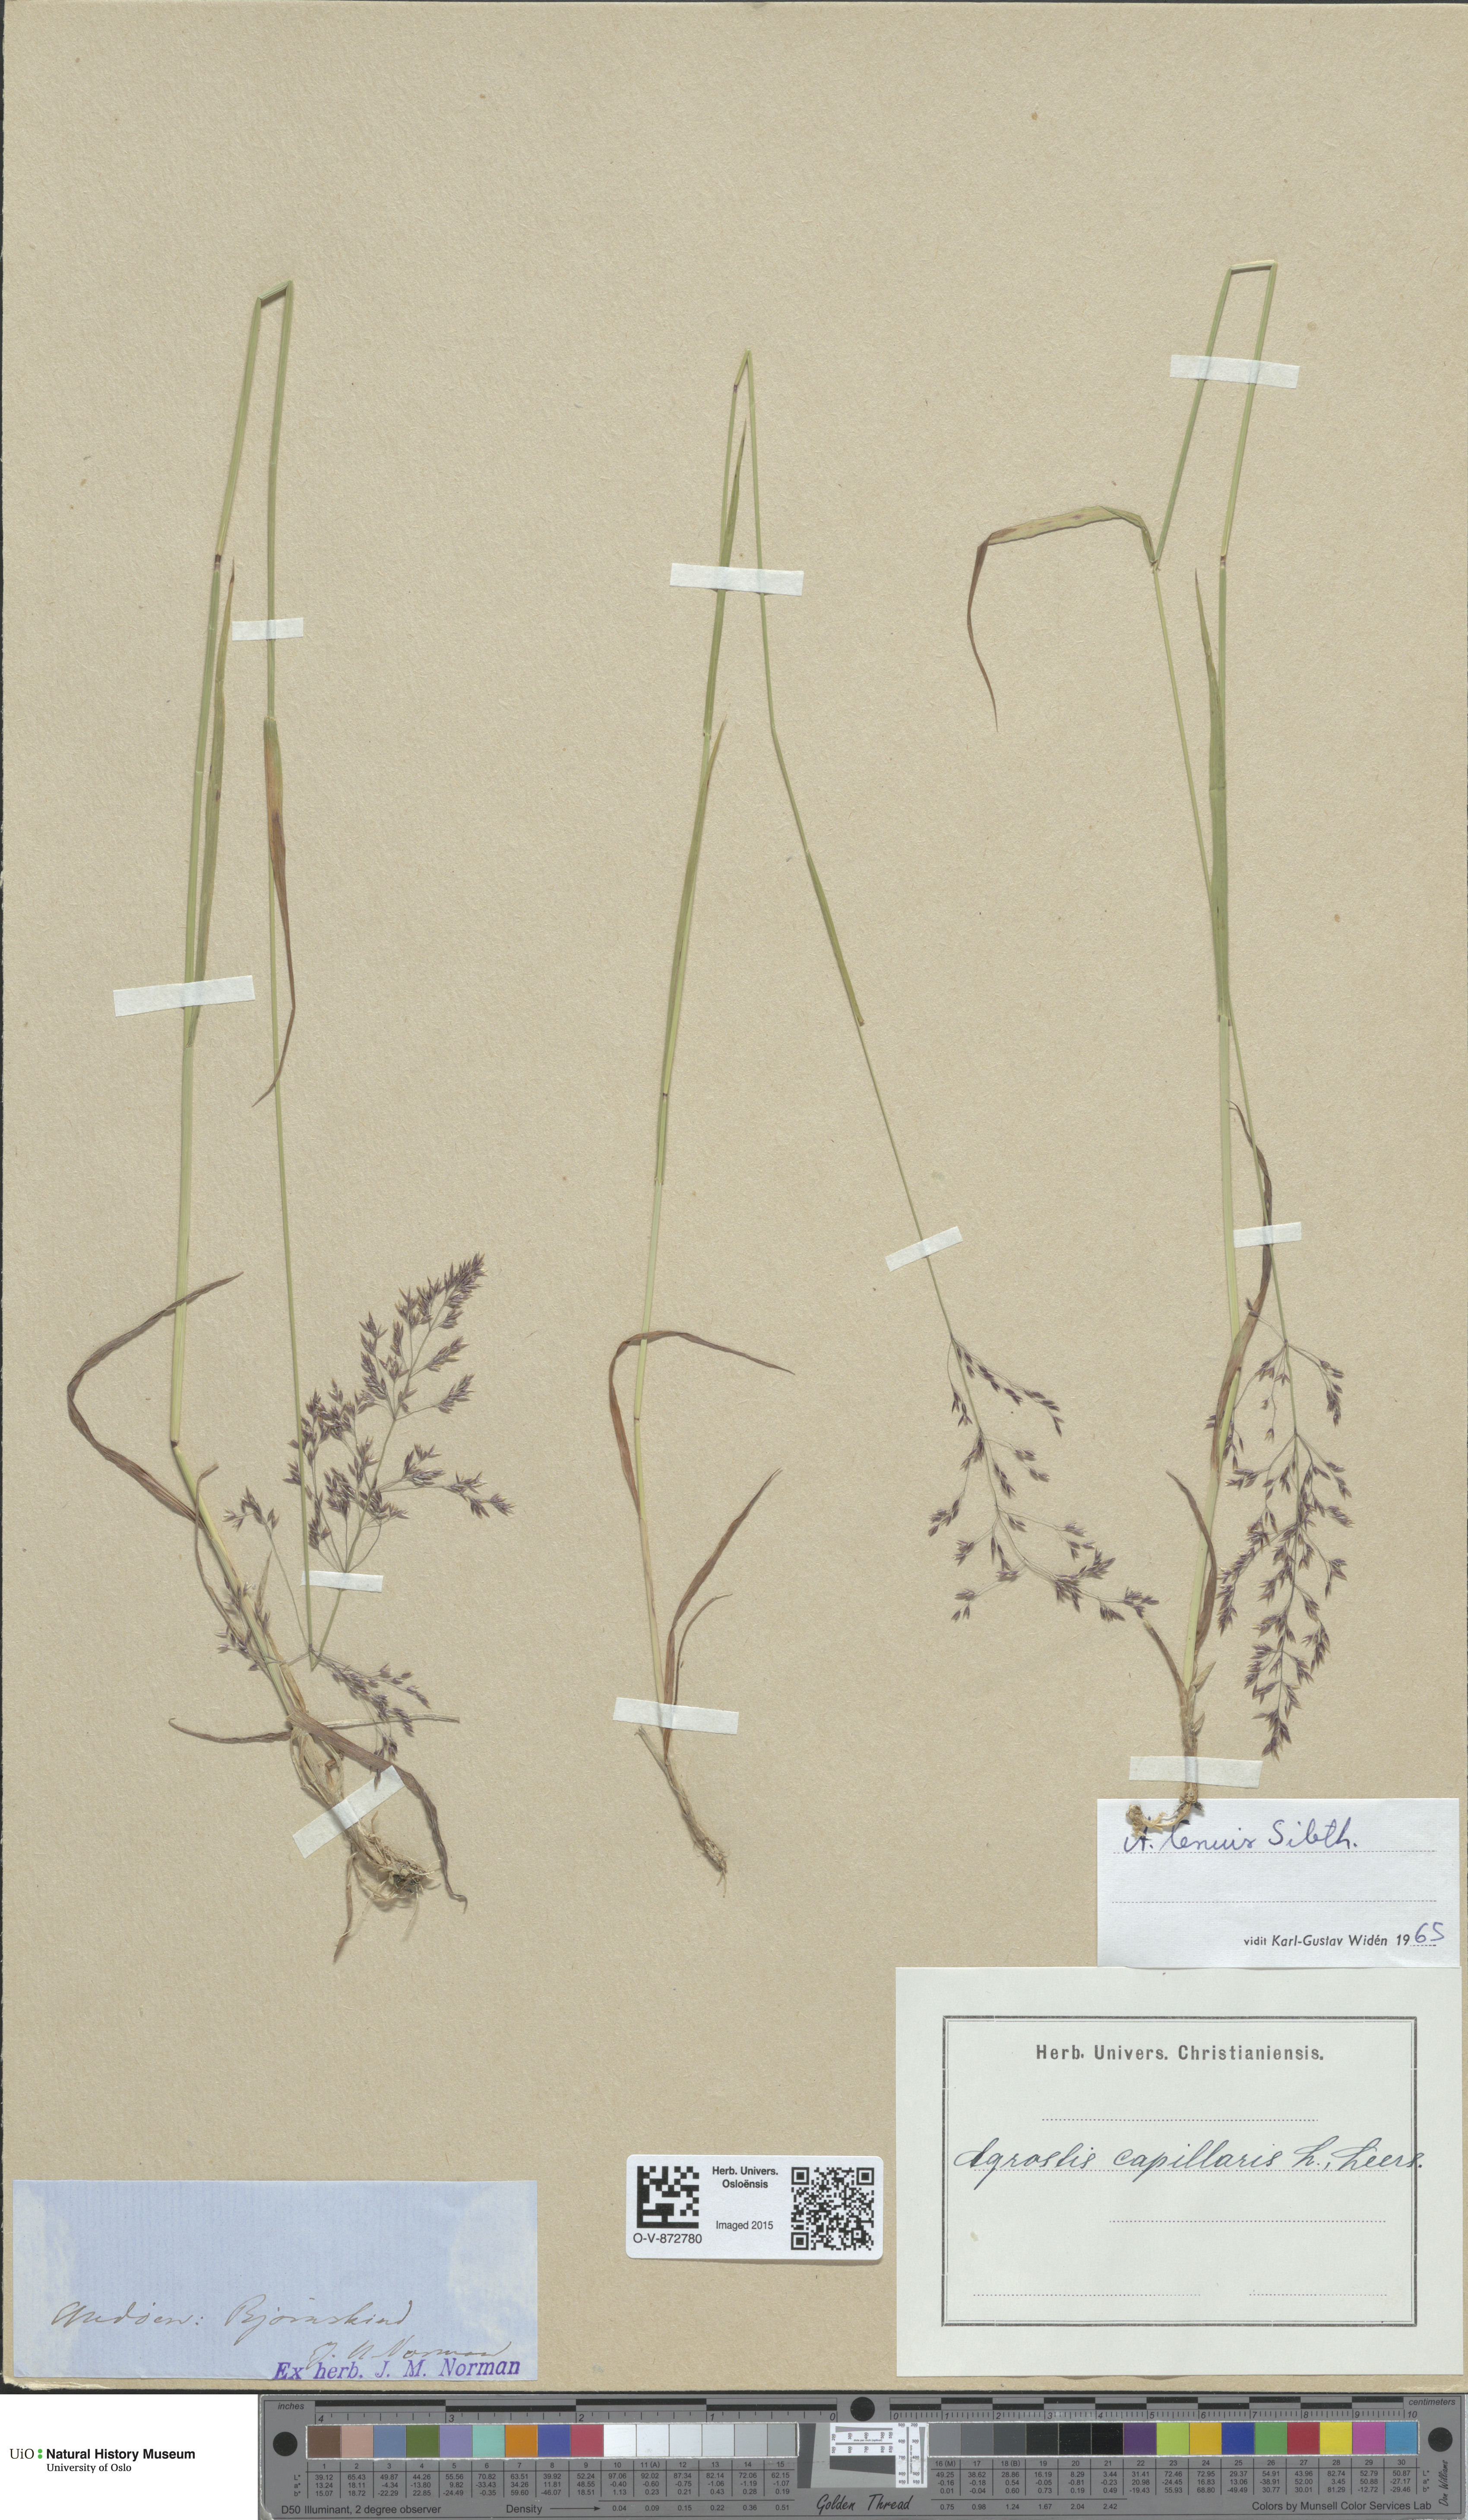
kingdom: Plantae
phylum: Tracheophyta
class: Liliopsida
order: Poales
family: Poaceae
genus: Agrostis
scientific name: Agrostis capillaris
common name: Colonial bentgrass
